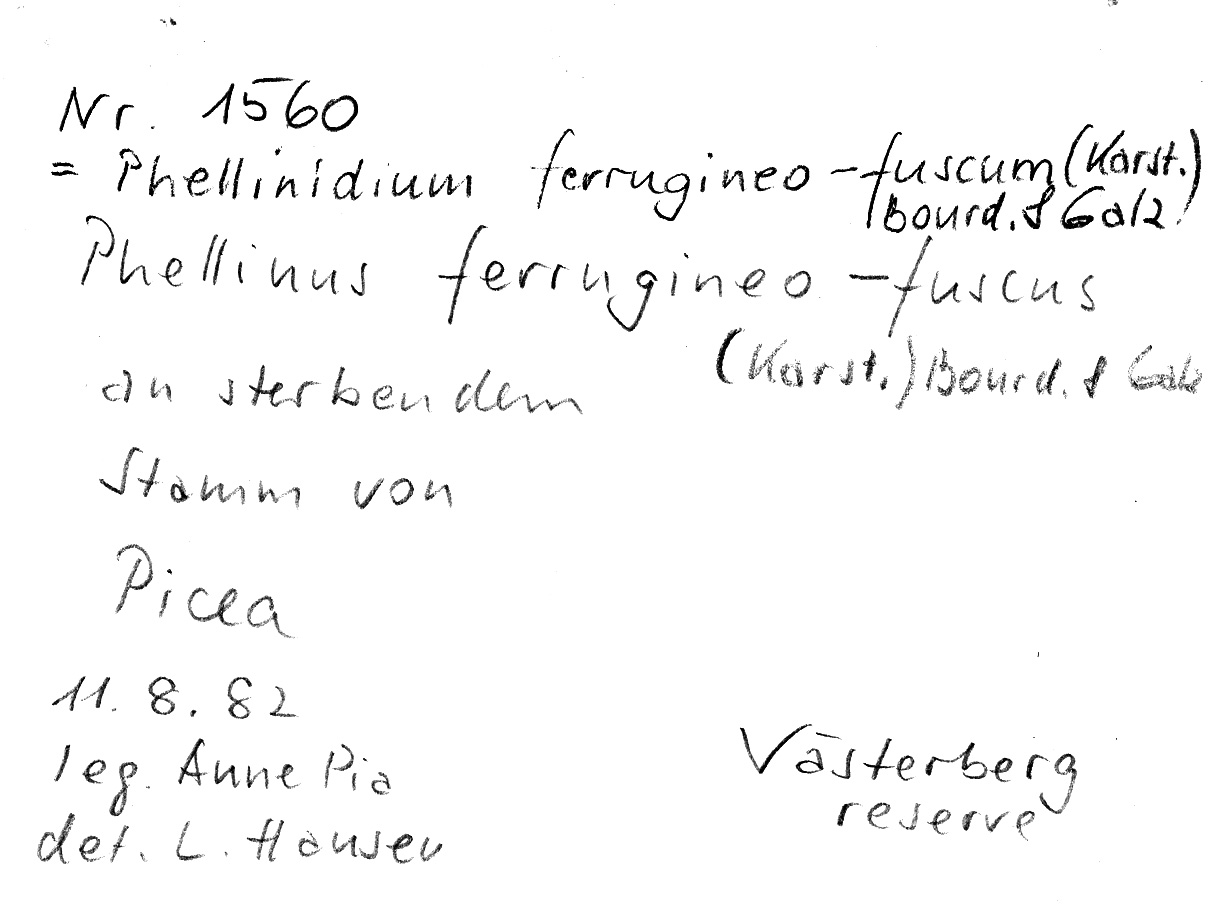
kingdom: Plantae
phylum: Tracheophyta
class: Pinopsida
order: Pinales
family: Pinaceae
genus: Picea
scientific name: Picea
